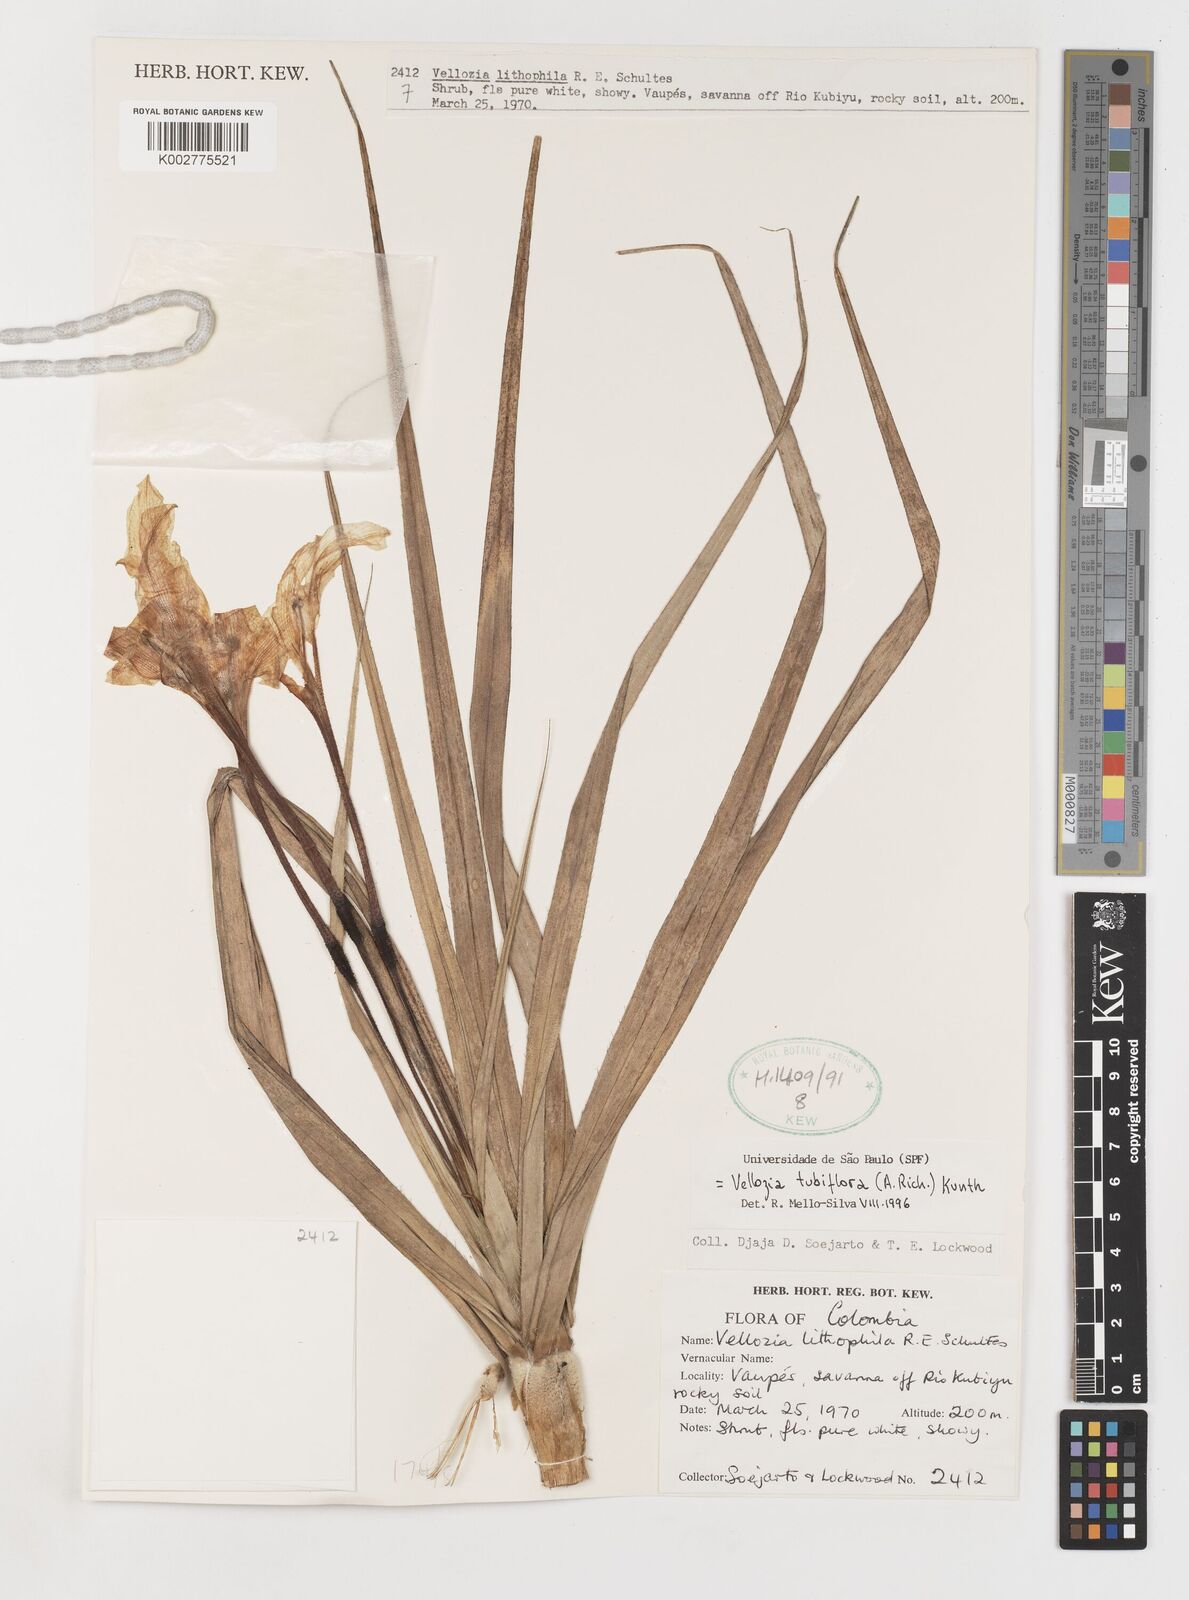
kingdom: Plantae
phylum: Tracheophyta
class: Liliopsida
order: Pandanales
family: Velloziaceae
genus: Vellozia
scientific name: Vellozia tubiflora
